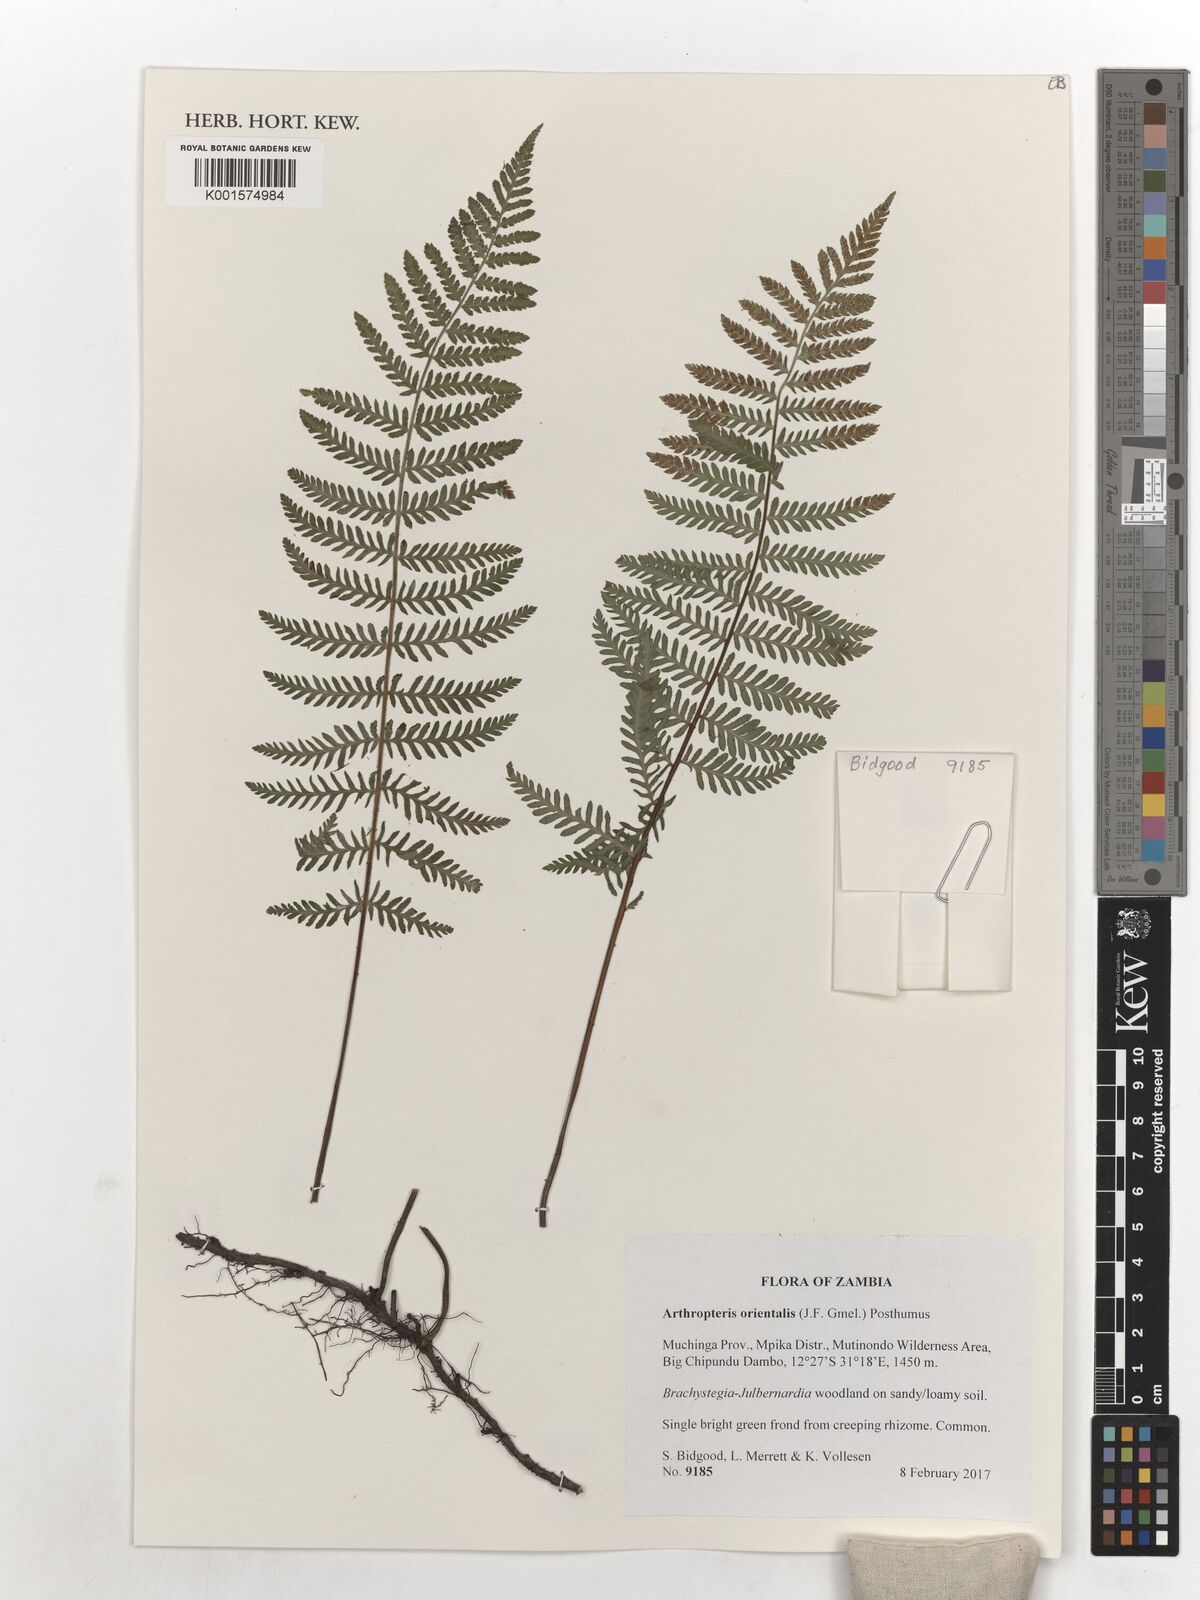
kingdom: Plantae
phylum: Tracheophyta
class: Polypodiopsida
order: Polypodiales
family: Tectariaceae
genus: Arthropteris
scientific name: Arthropteris orientalis
